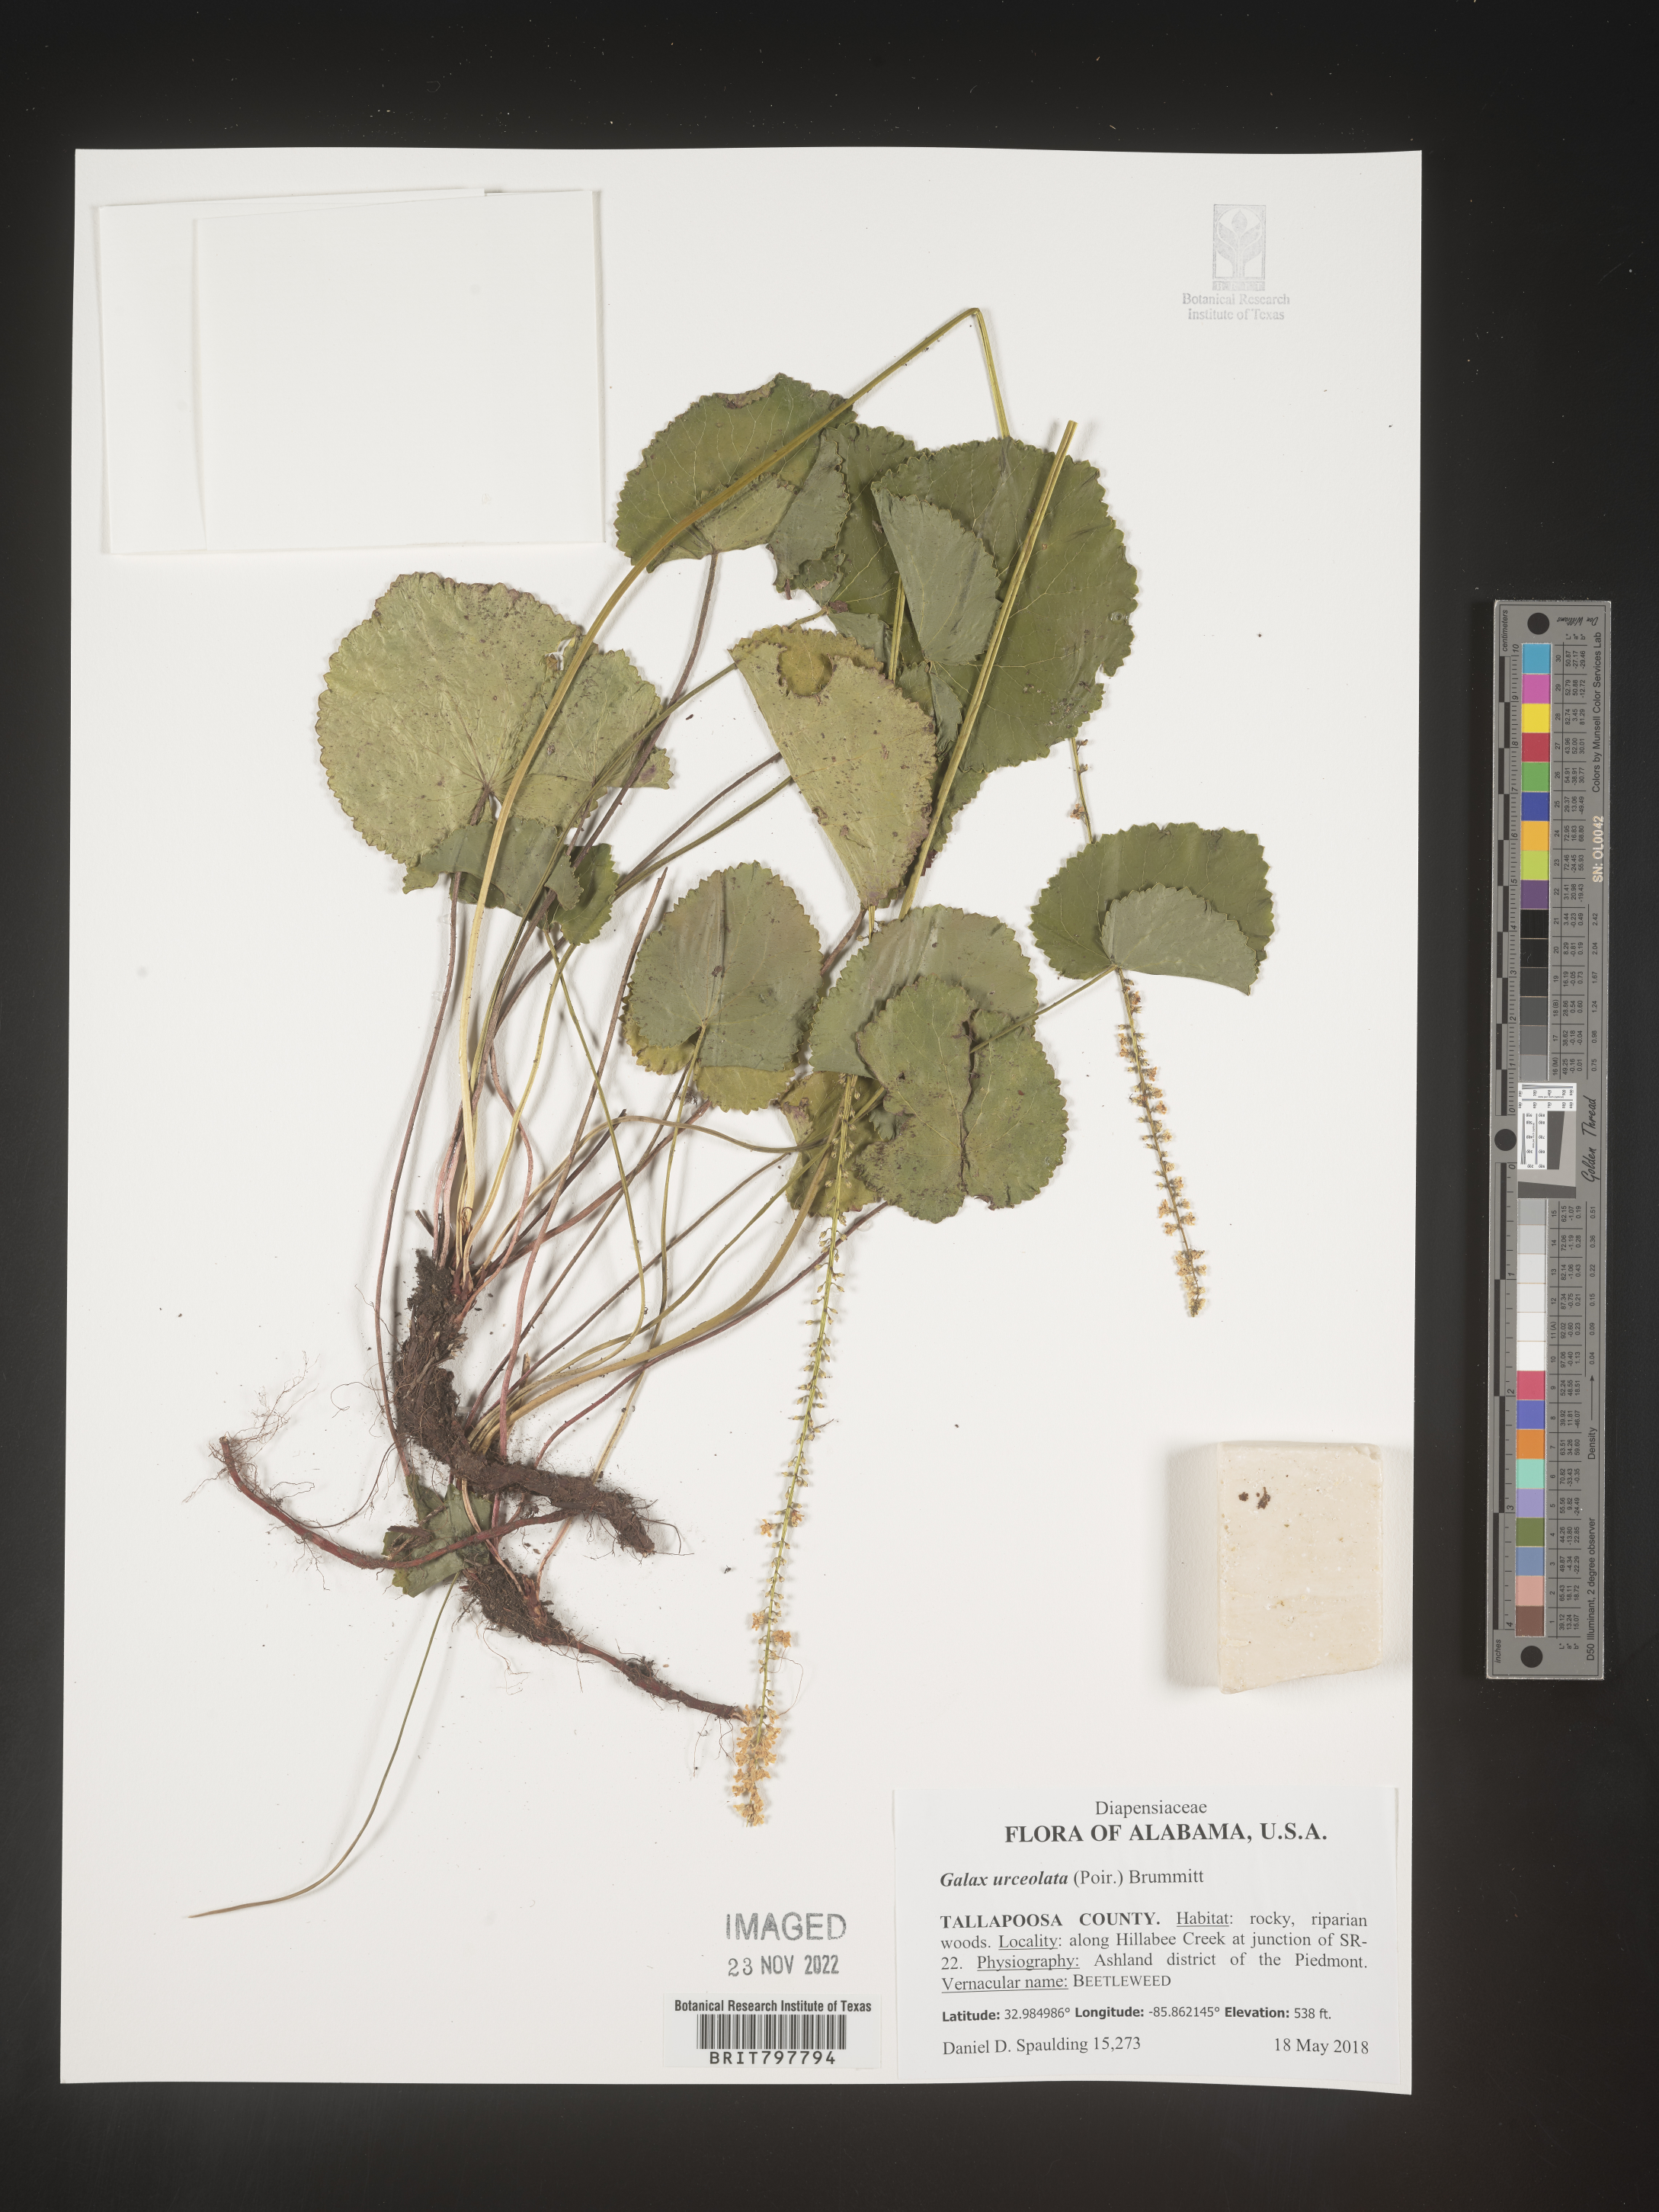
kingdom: Plantae
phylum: Tracheophyta
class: Magnoliopsida
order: Ericales
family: Diapensiaceae
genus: Galax
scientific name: Galax
